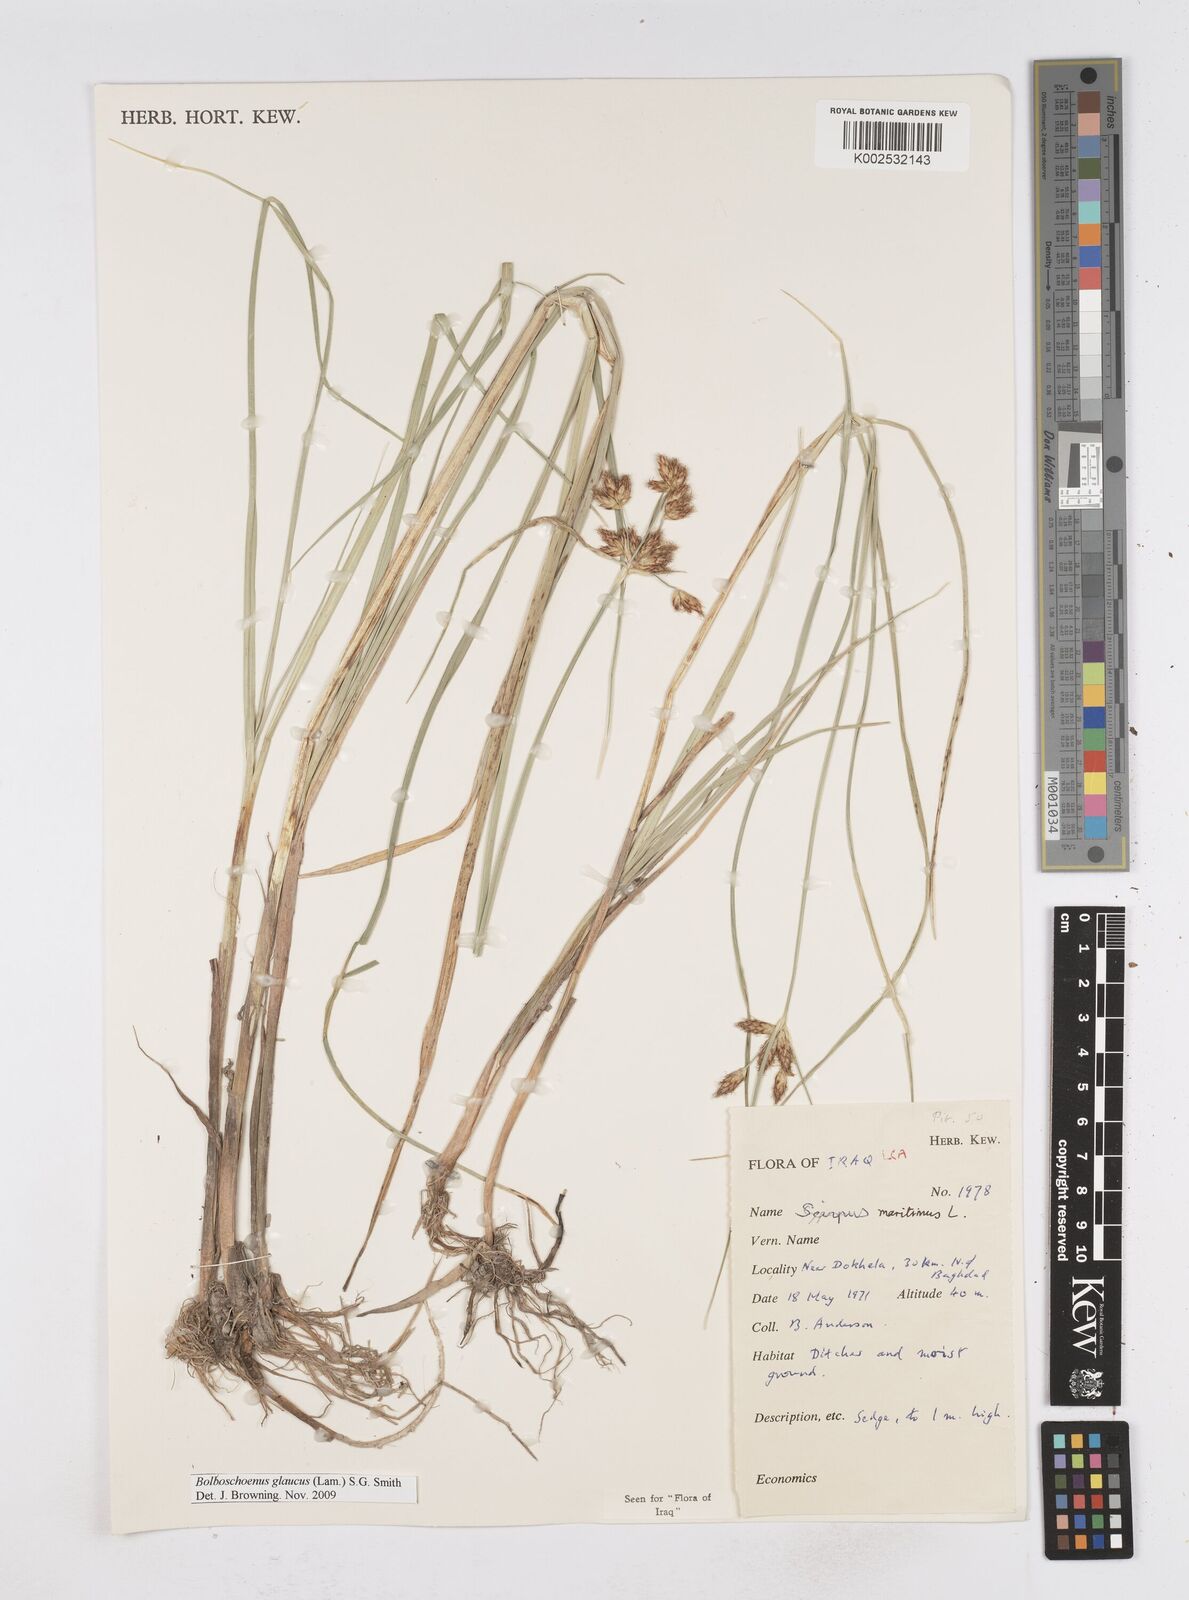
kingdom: Plantae
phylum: Tracheophyta
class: Liliopsida
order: Poales
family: Cyperaceae
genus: Bolboschoenus
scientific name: Bolboschoenus maritimus
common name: Sea club-rush
